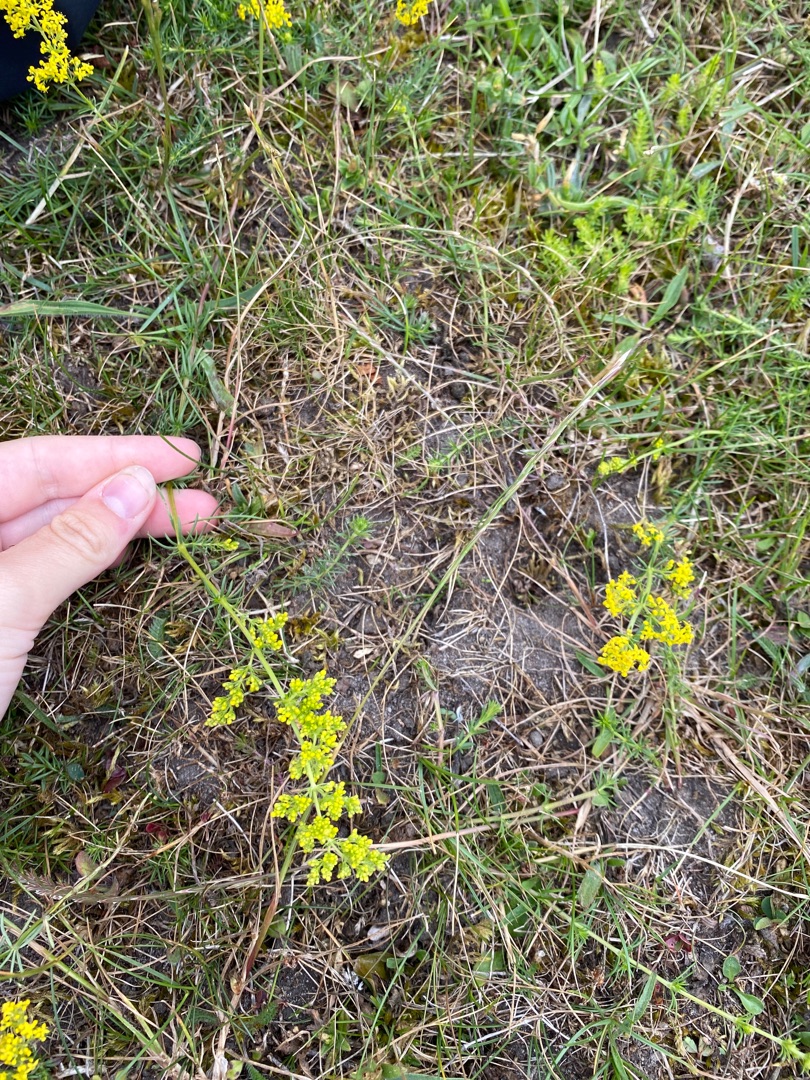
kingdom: Plantae
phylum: Tracheophyta
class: Magnoliopsida
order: Gentianales
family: Rubiaceae
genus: Galium
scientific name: Galium verum
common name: Gul snerre
